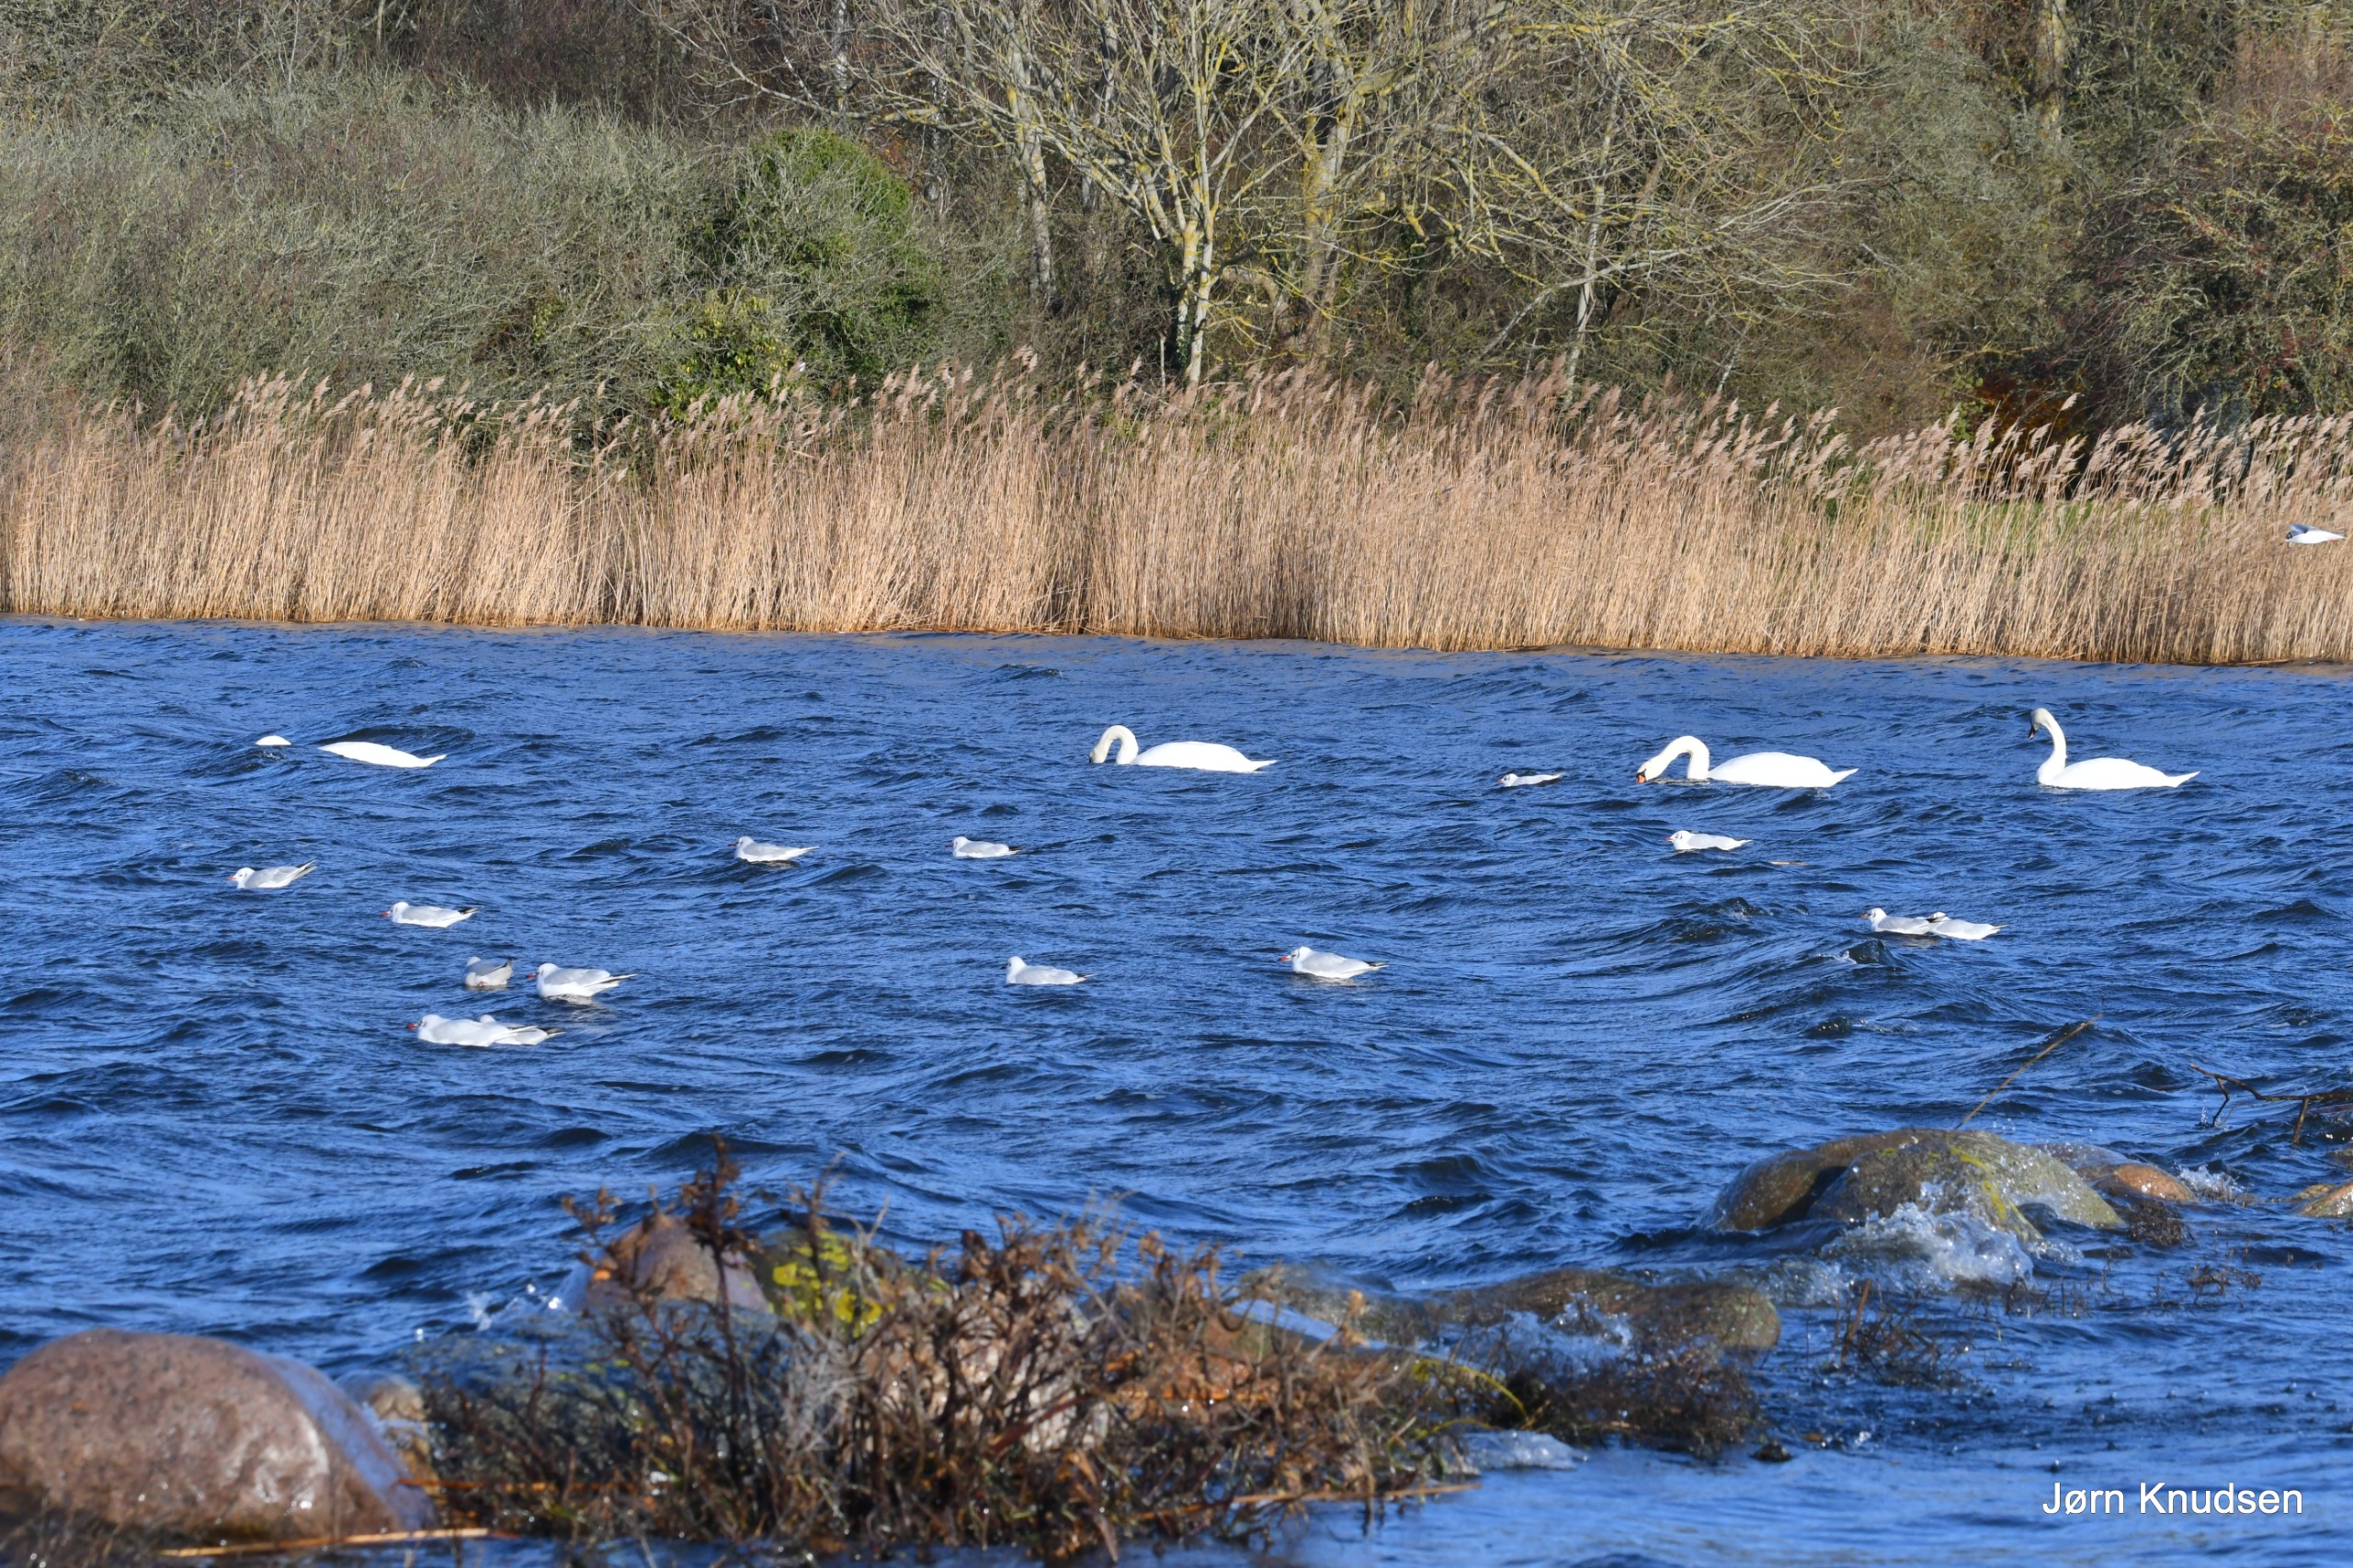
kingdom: Animalia
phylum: Chordata
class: Aves
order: Anseriformes
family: Anatidae
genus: Cygnus
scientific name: Cygnus olor
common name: Knopsvane
